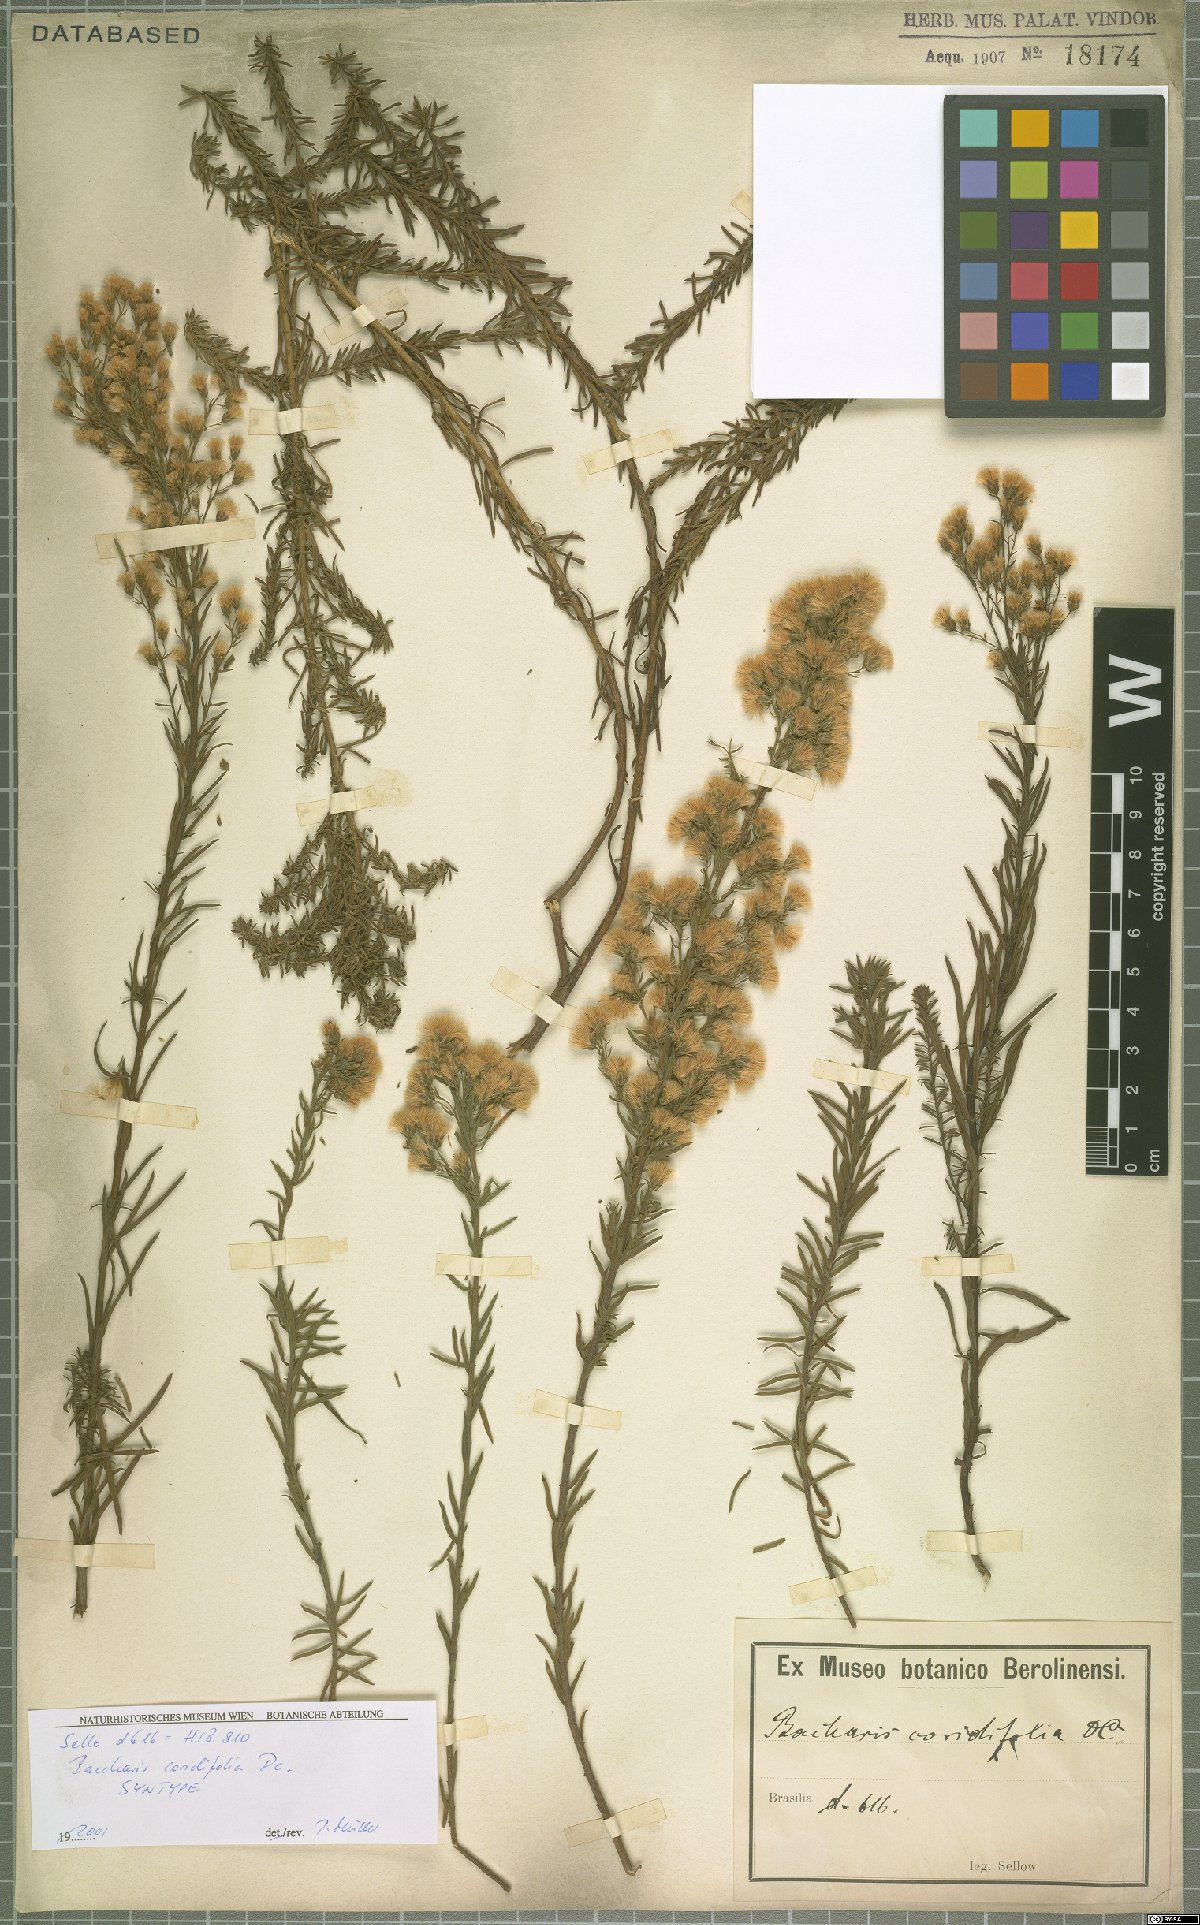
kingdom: Plantae
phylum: Tracheophyta
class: Magnoliopsida
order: Asterales
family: Asteraceae
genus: Baccharis
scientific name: Baccharis coridifolia
